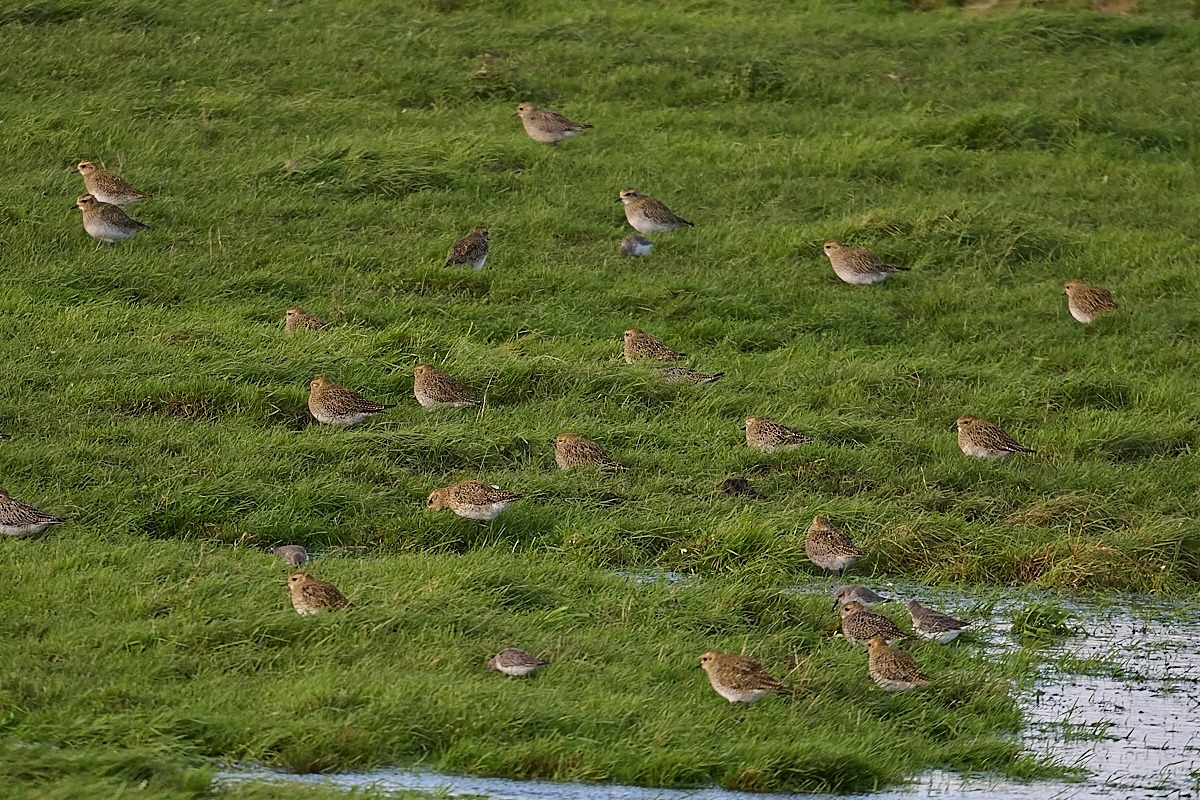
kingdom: Animalia
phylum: Chordata
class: Aves
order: Charadriiformes
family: Charadriidae
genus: Pluvialis
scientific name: Pluvialis apricaria
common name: Hjejle
